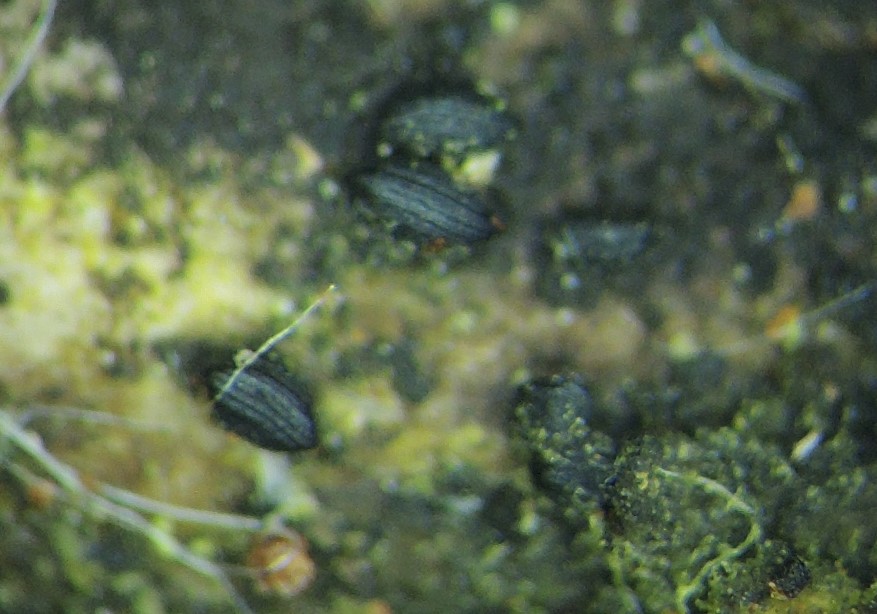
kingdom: Fungi
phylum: Ascomycota
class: Dothideomycetes
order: Mytilinidiales
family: Mytilinidiaceae
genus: Mytilinidion
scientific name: Mytilinidion rhenanum
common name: almindelig kulmusling
